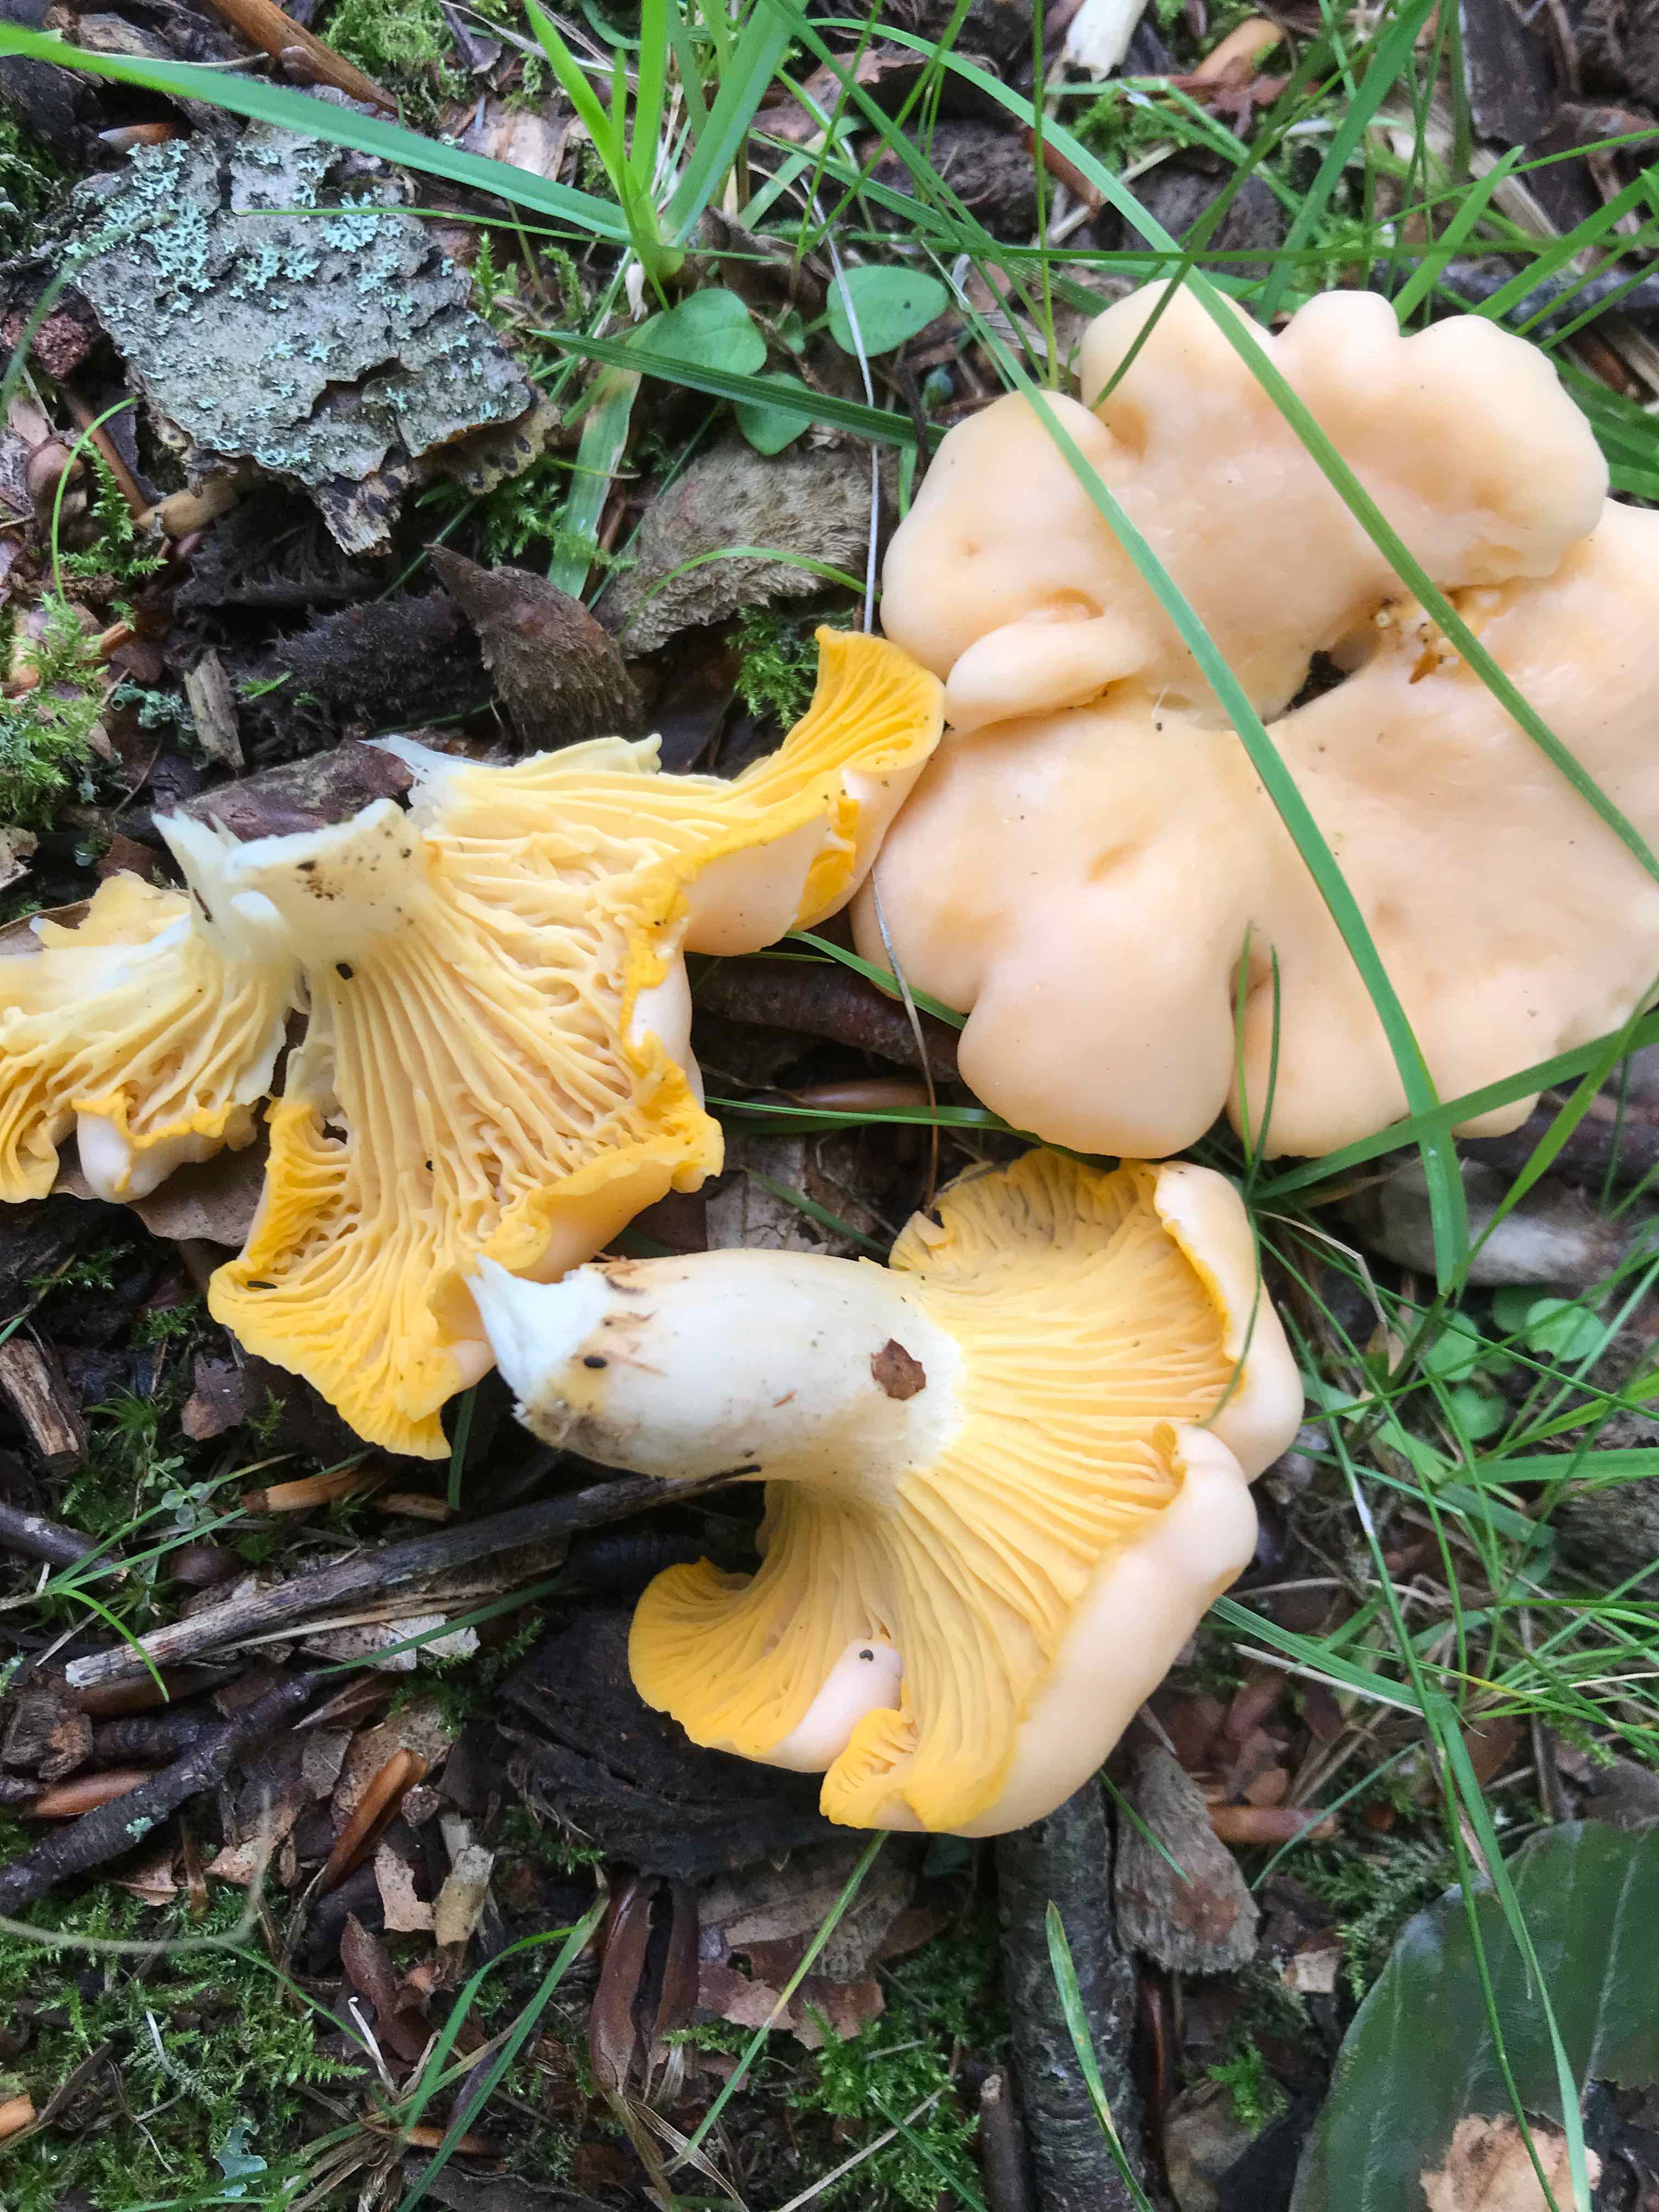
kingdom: Fungi
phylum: Basidiomycota
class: Agaricomycetes
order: Cantharellales
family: Hydnaceae
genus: Cantharellus
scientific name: Cantharellus pallens
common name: bleg kantarel
